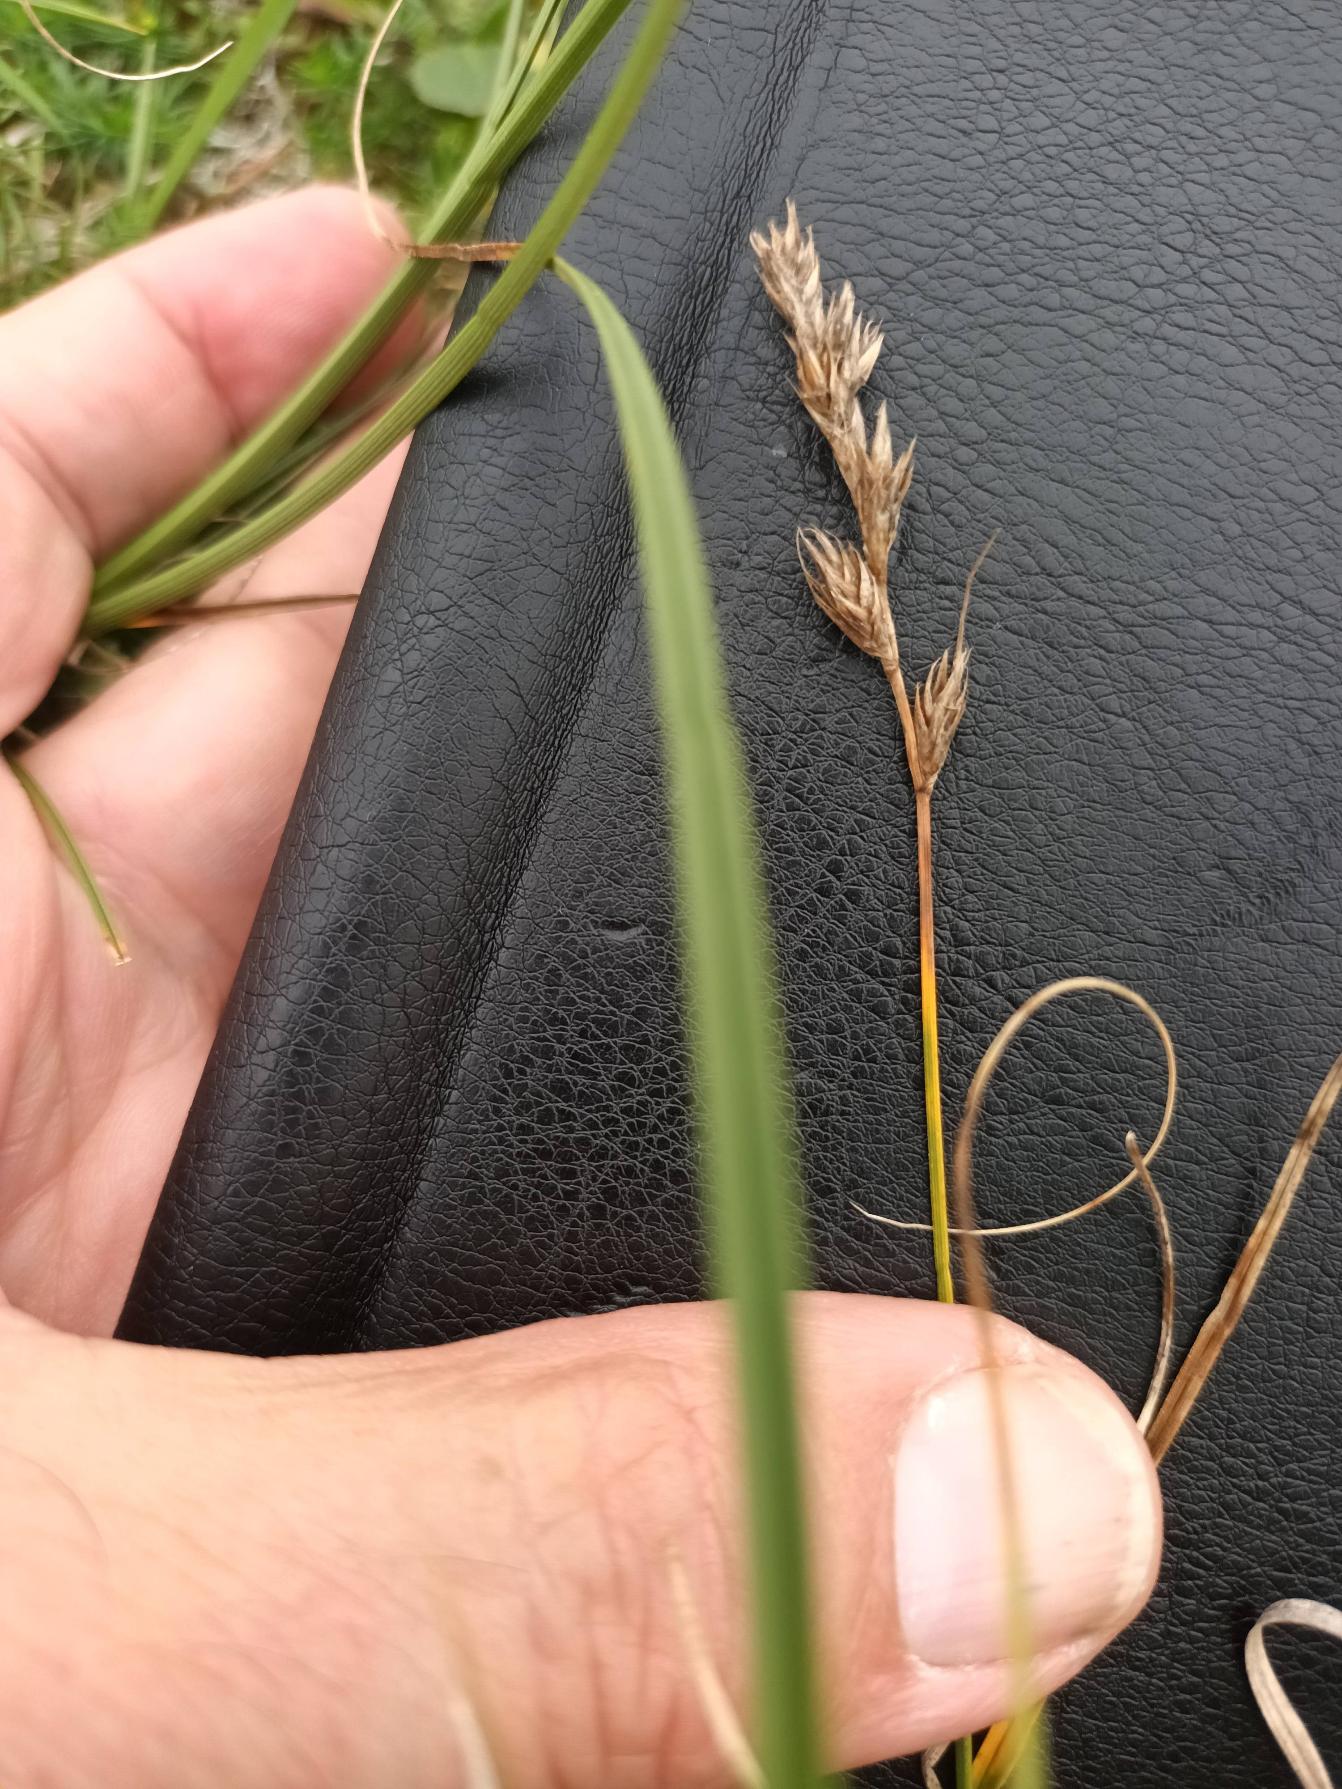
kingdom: Plantae
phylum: Tracheophyta
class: Liliopsida
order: Poales
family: Cyperaceae
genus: Carex
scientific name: Carex arenaria
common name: Sand-star
